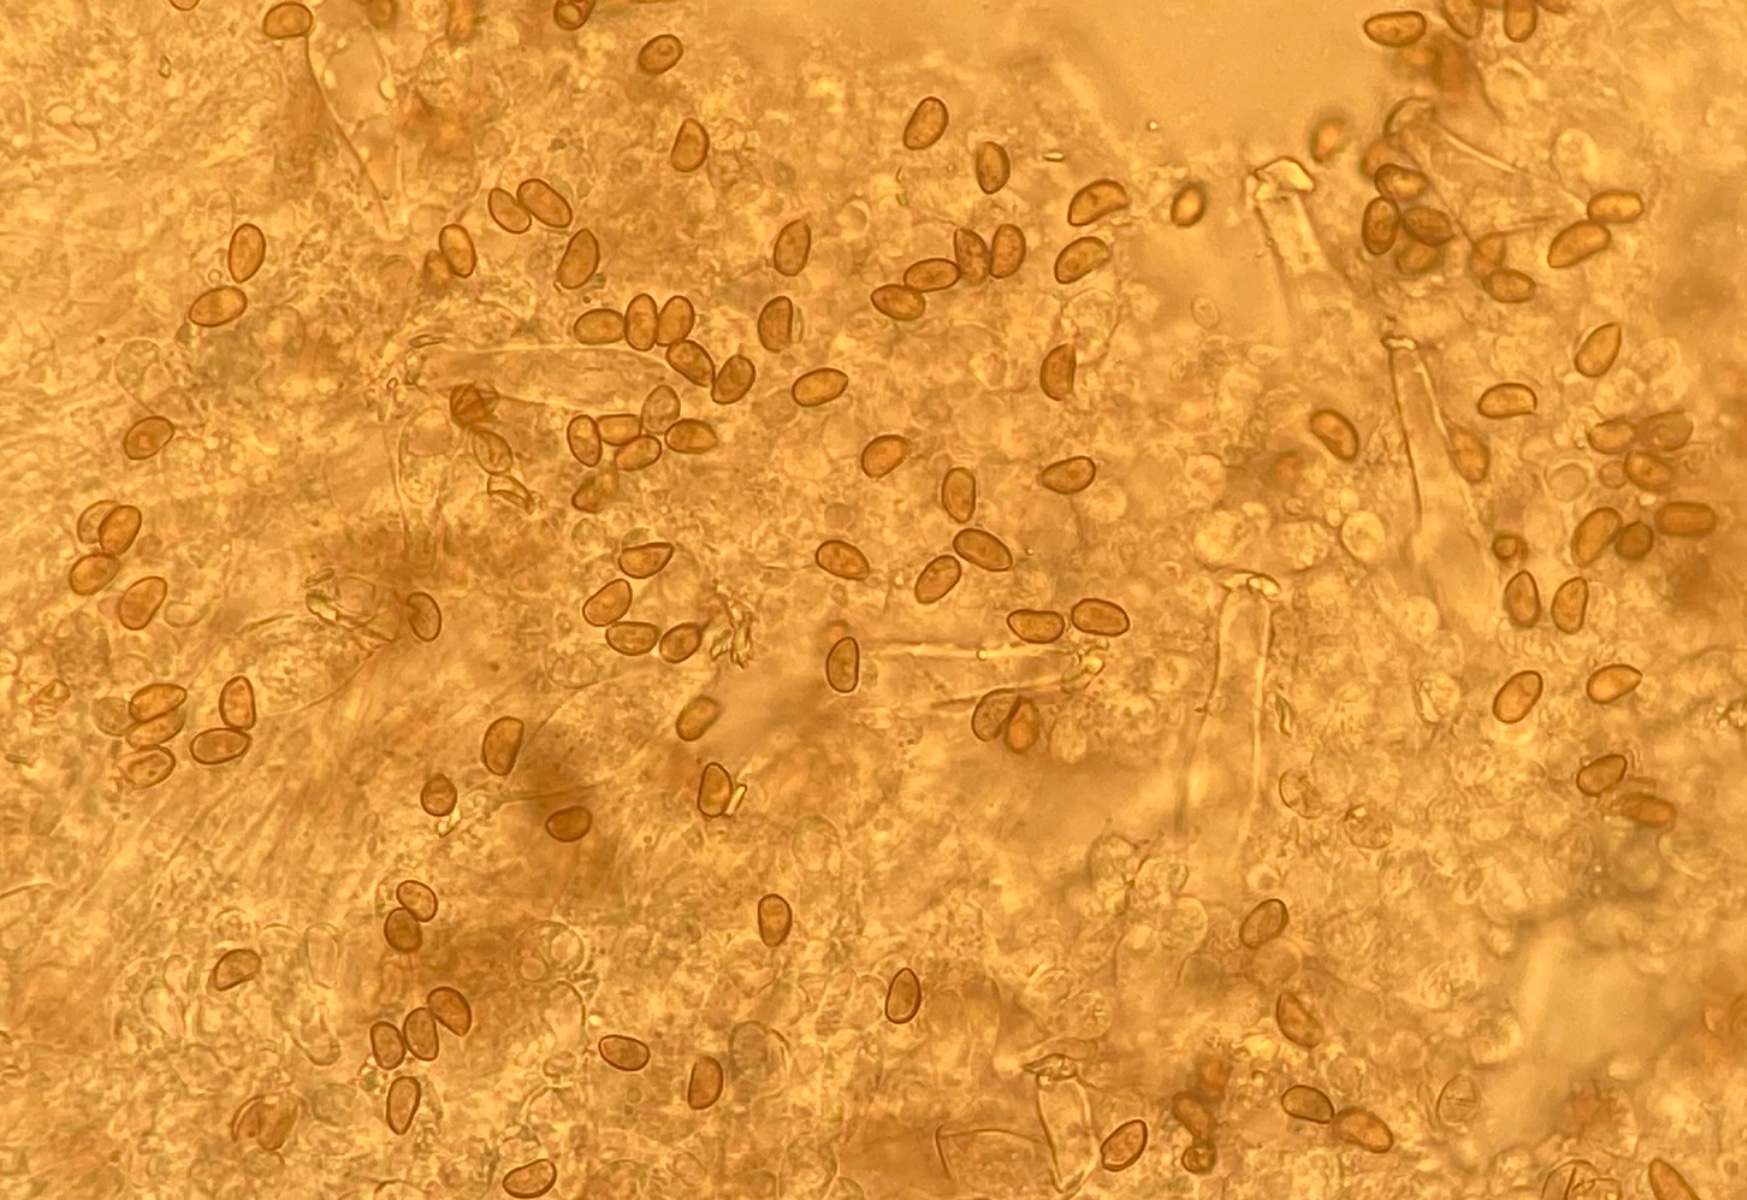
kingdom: Fungi
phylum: Basidiomycota
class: Agaricomycetes
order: Agaricales
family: Inocybaceae
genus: Inocybe
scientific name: Inocybe
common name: trævlhat
